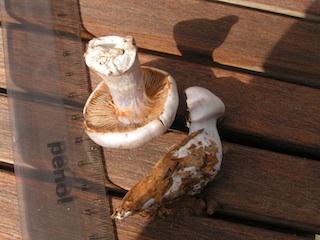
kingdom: Fungi
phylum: Basidiomycota
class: Agaricomycetes
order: Agaricales
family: Cortinariaceae
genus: Cortinarius
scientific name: Cortinarius alboviolaceus
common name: lysviolet slørhat
